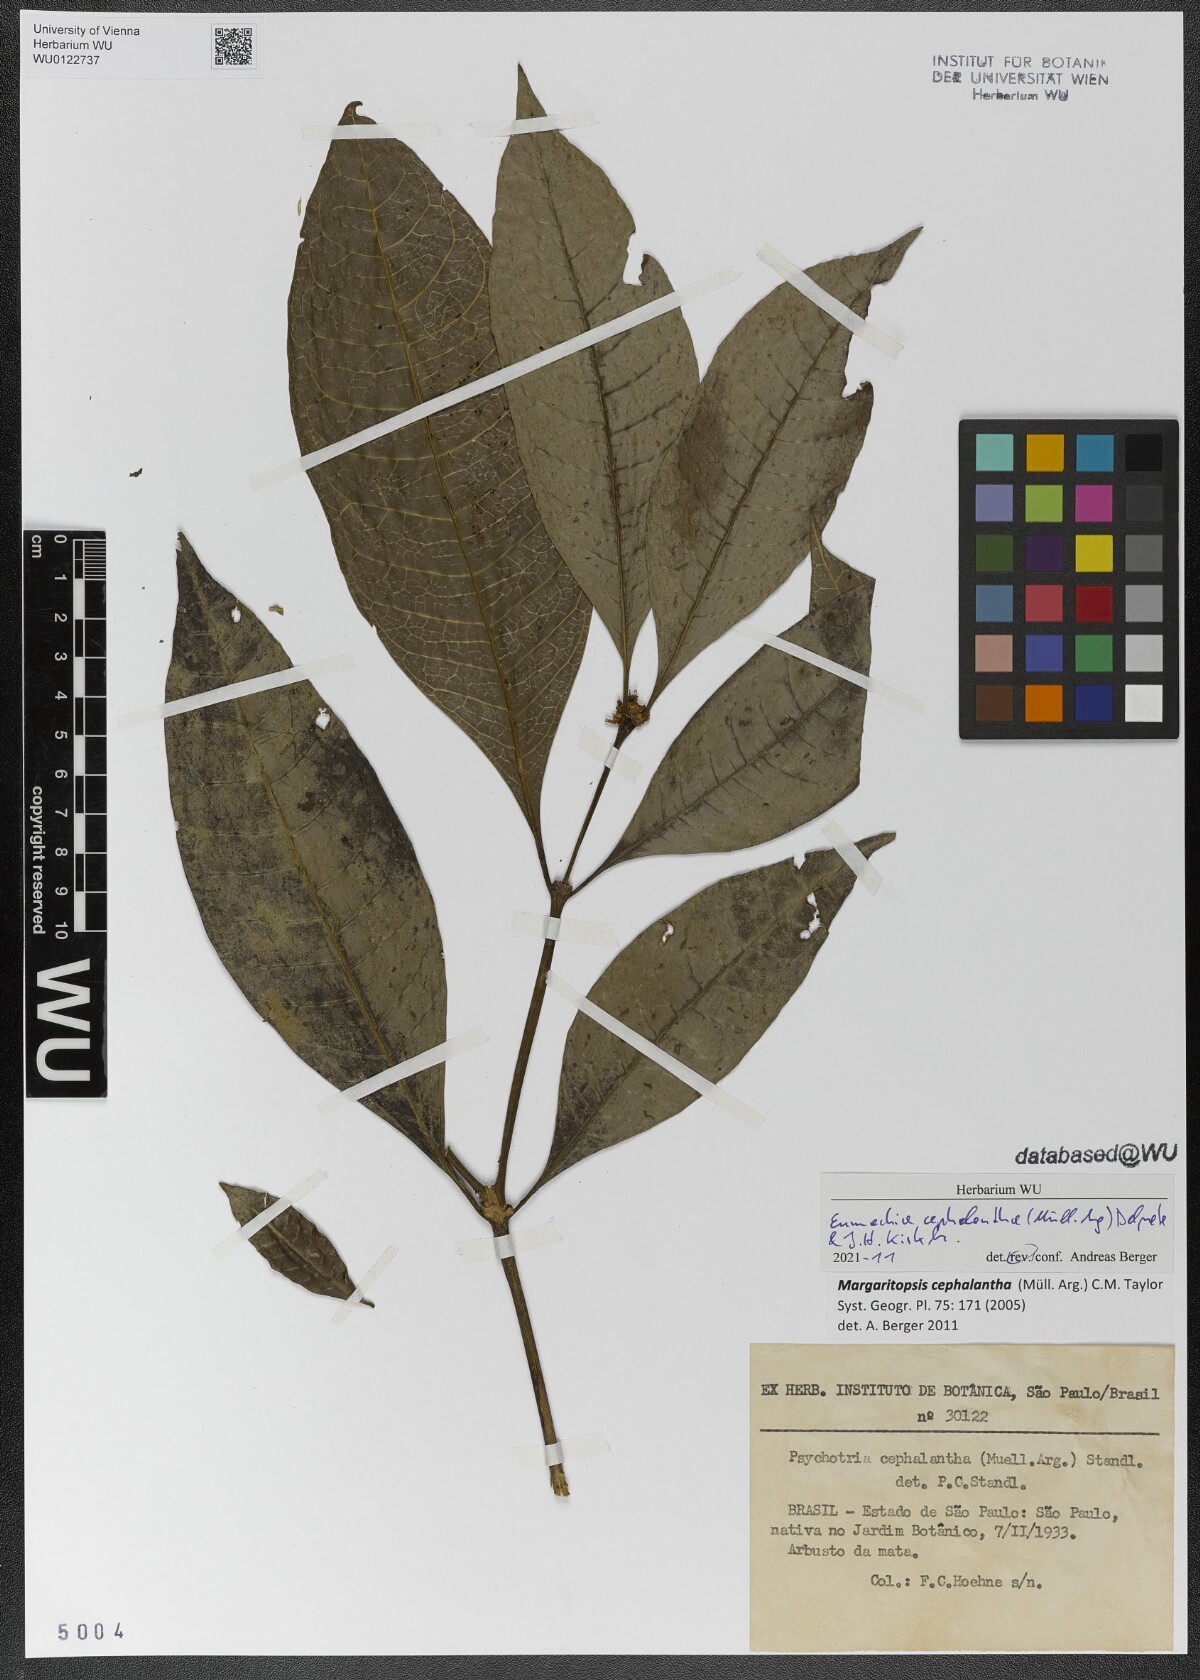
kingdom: Plantae
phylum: Tracheophyta
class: Magnoliopsida
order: Gentianales
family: Rubiaceae
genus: Eumachia
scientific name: Eumachia cephalantha
